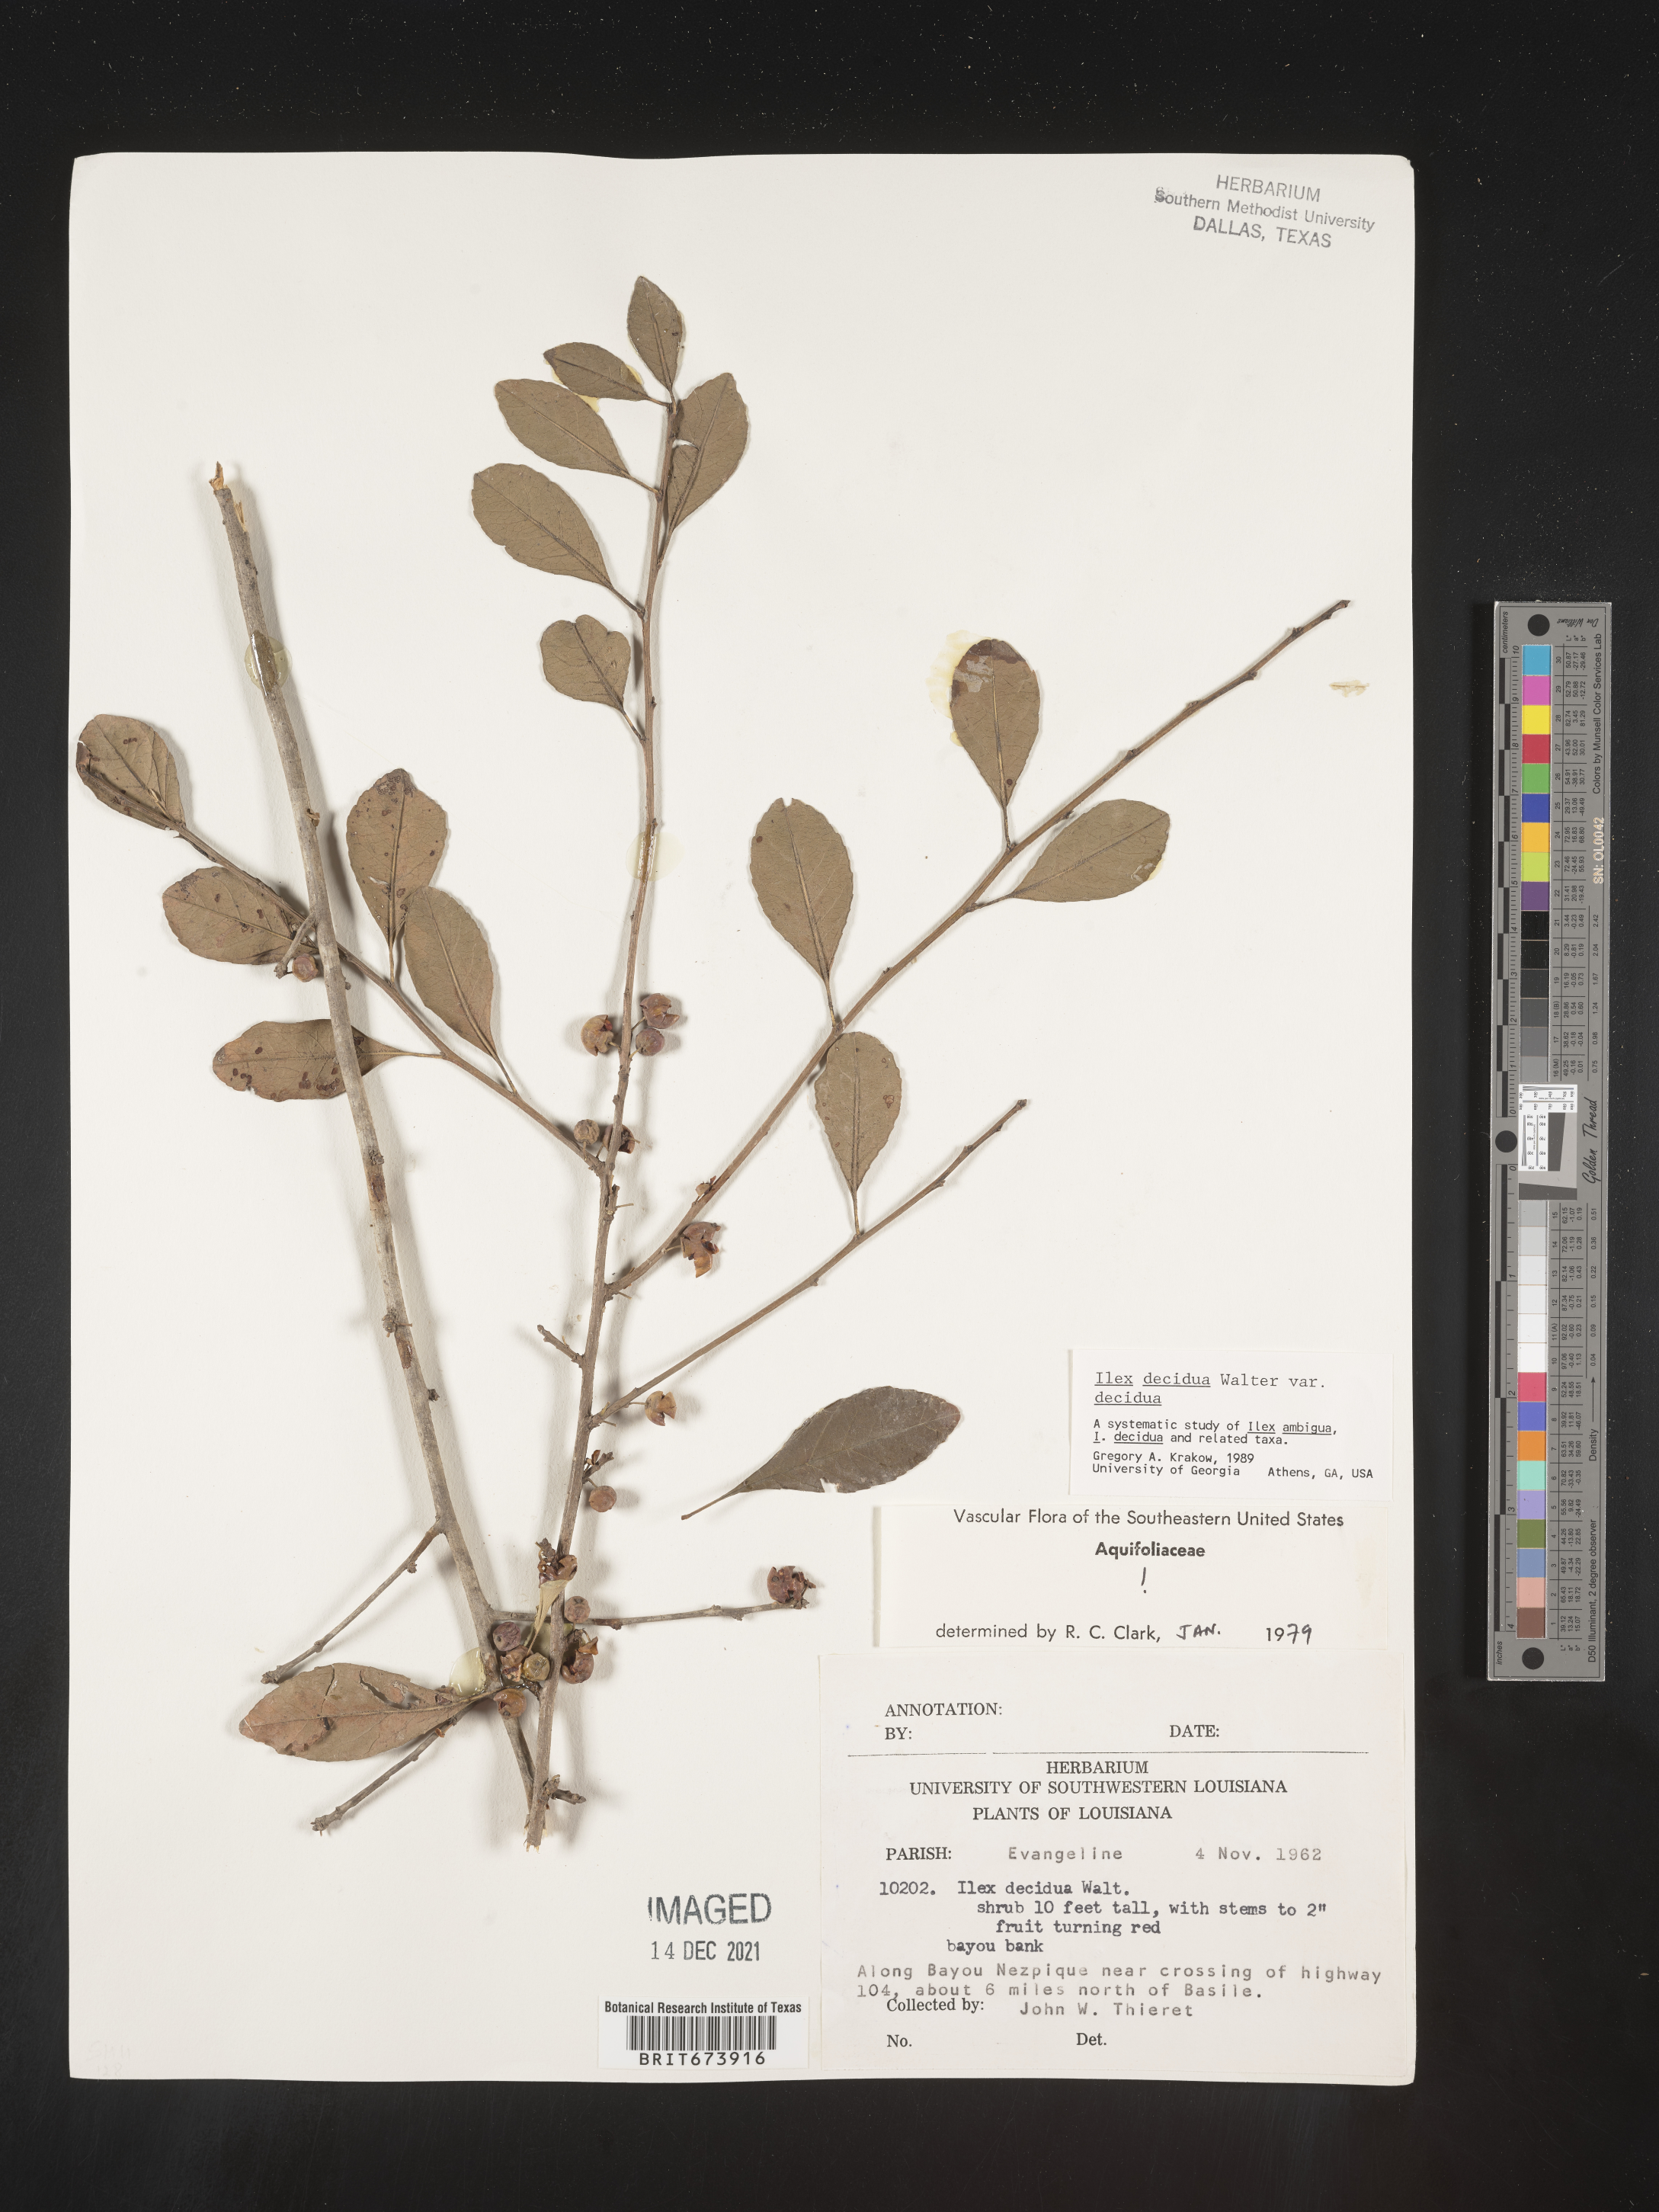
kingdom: Plantae
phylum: Tracheophyta
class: Magnoliopsida
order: Aquifoliales
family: Aquifoliaceae
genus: Ilex
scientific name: Ilex decidua
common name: Possum-haw
